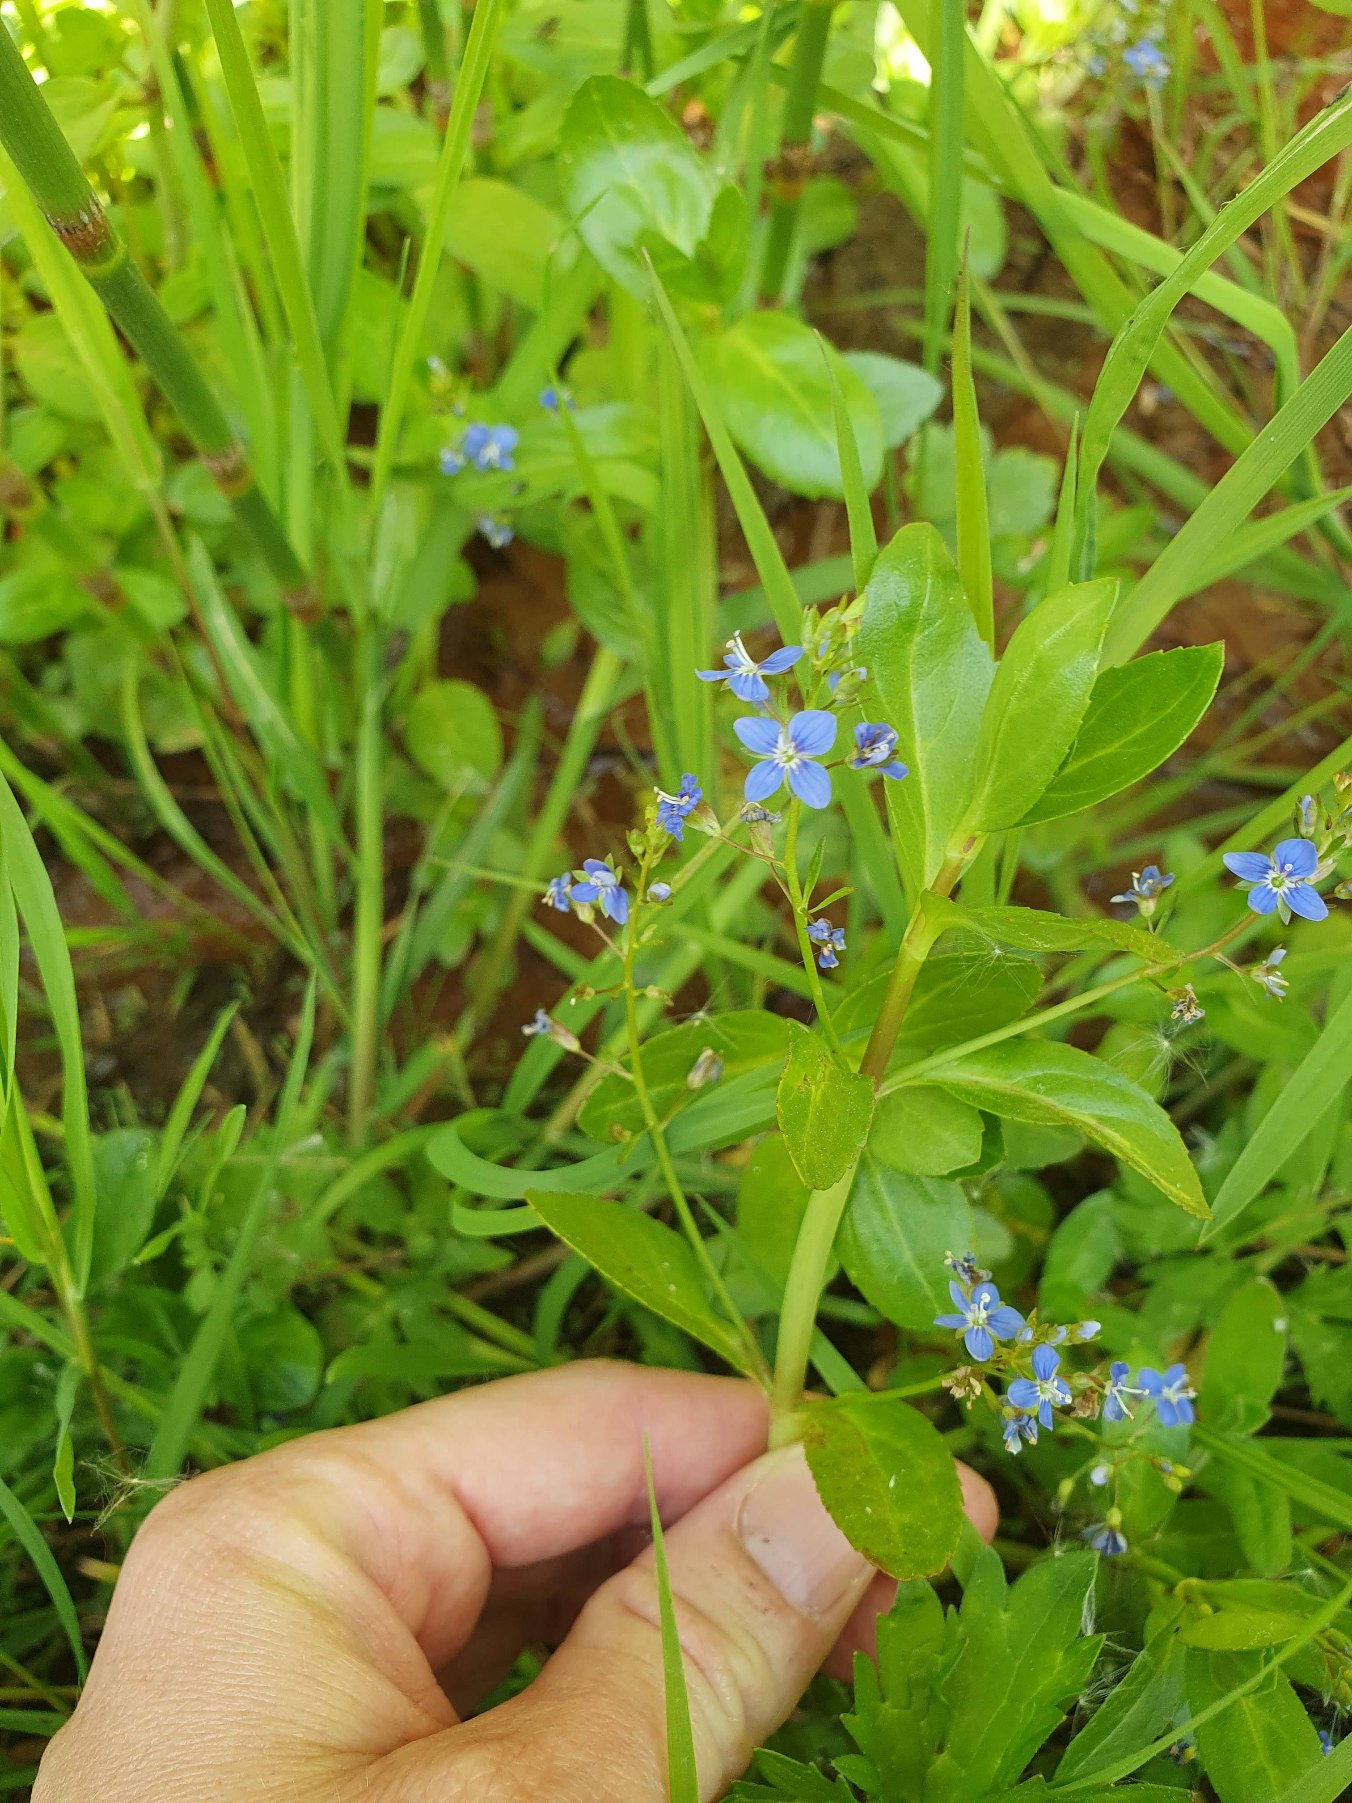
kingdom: Plantae
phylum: Tracheophyta
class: Magnoliopsida
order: Lamiales
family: Plantaginaceae
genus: Veronica
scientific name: Veronica beccabunga
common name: Tykbladet ærenpris
